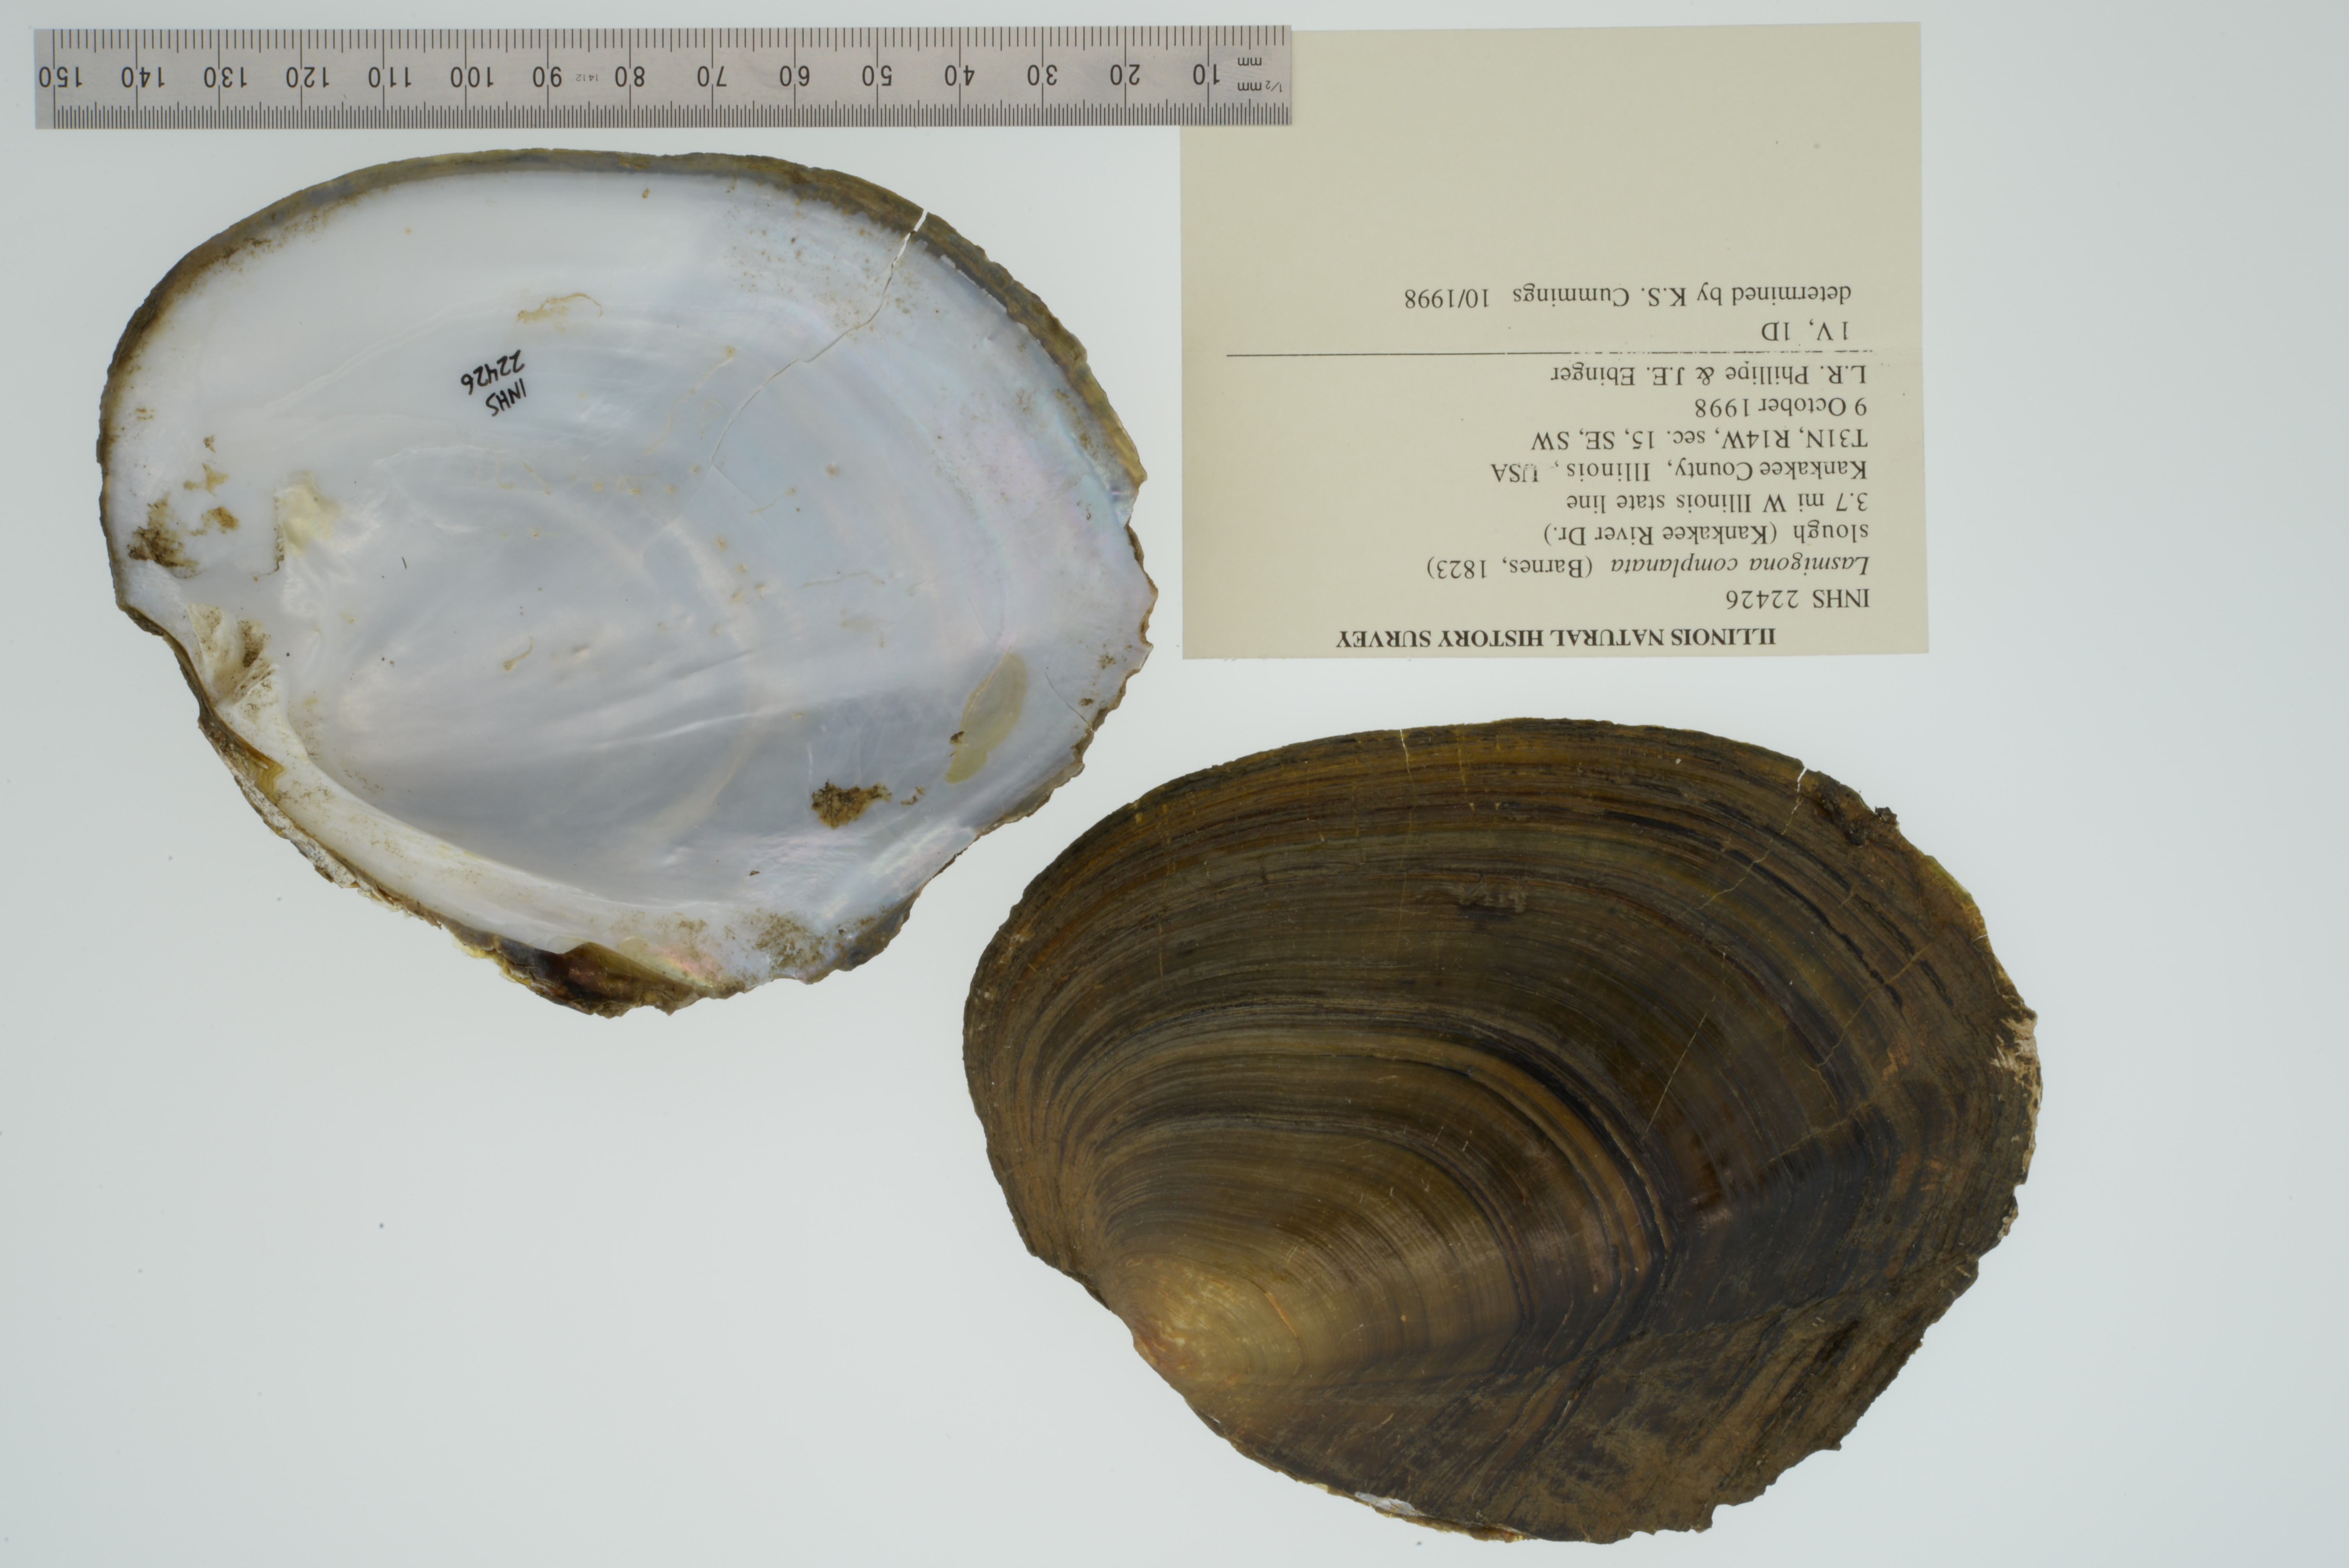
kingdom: Animalia
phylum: Mollusca
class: Bivalvia
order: Unionida
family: Unionidae
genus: Lasmigona
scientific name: Lasmigona complanata
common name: White heelsplitter
